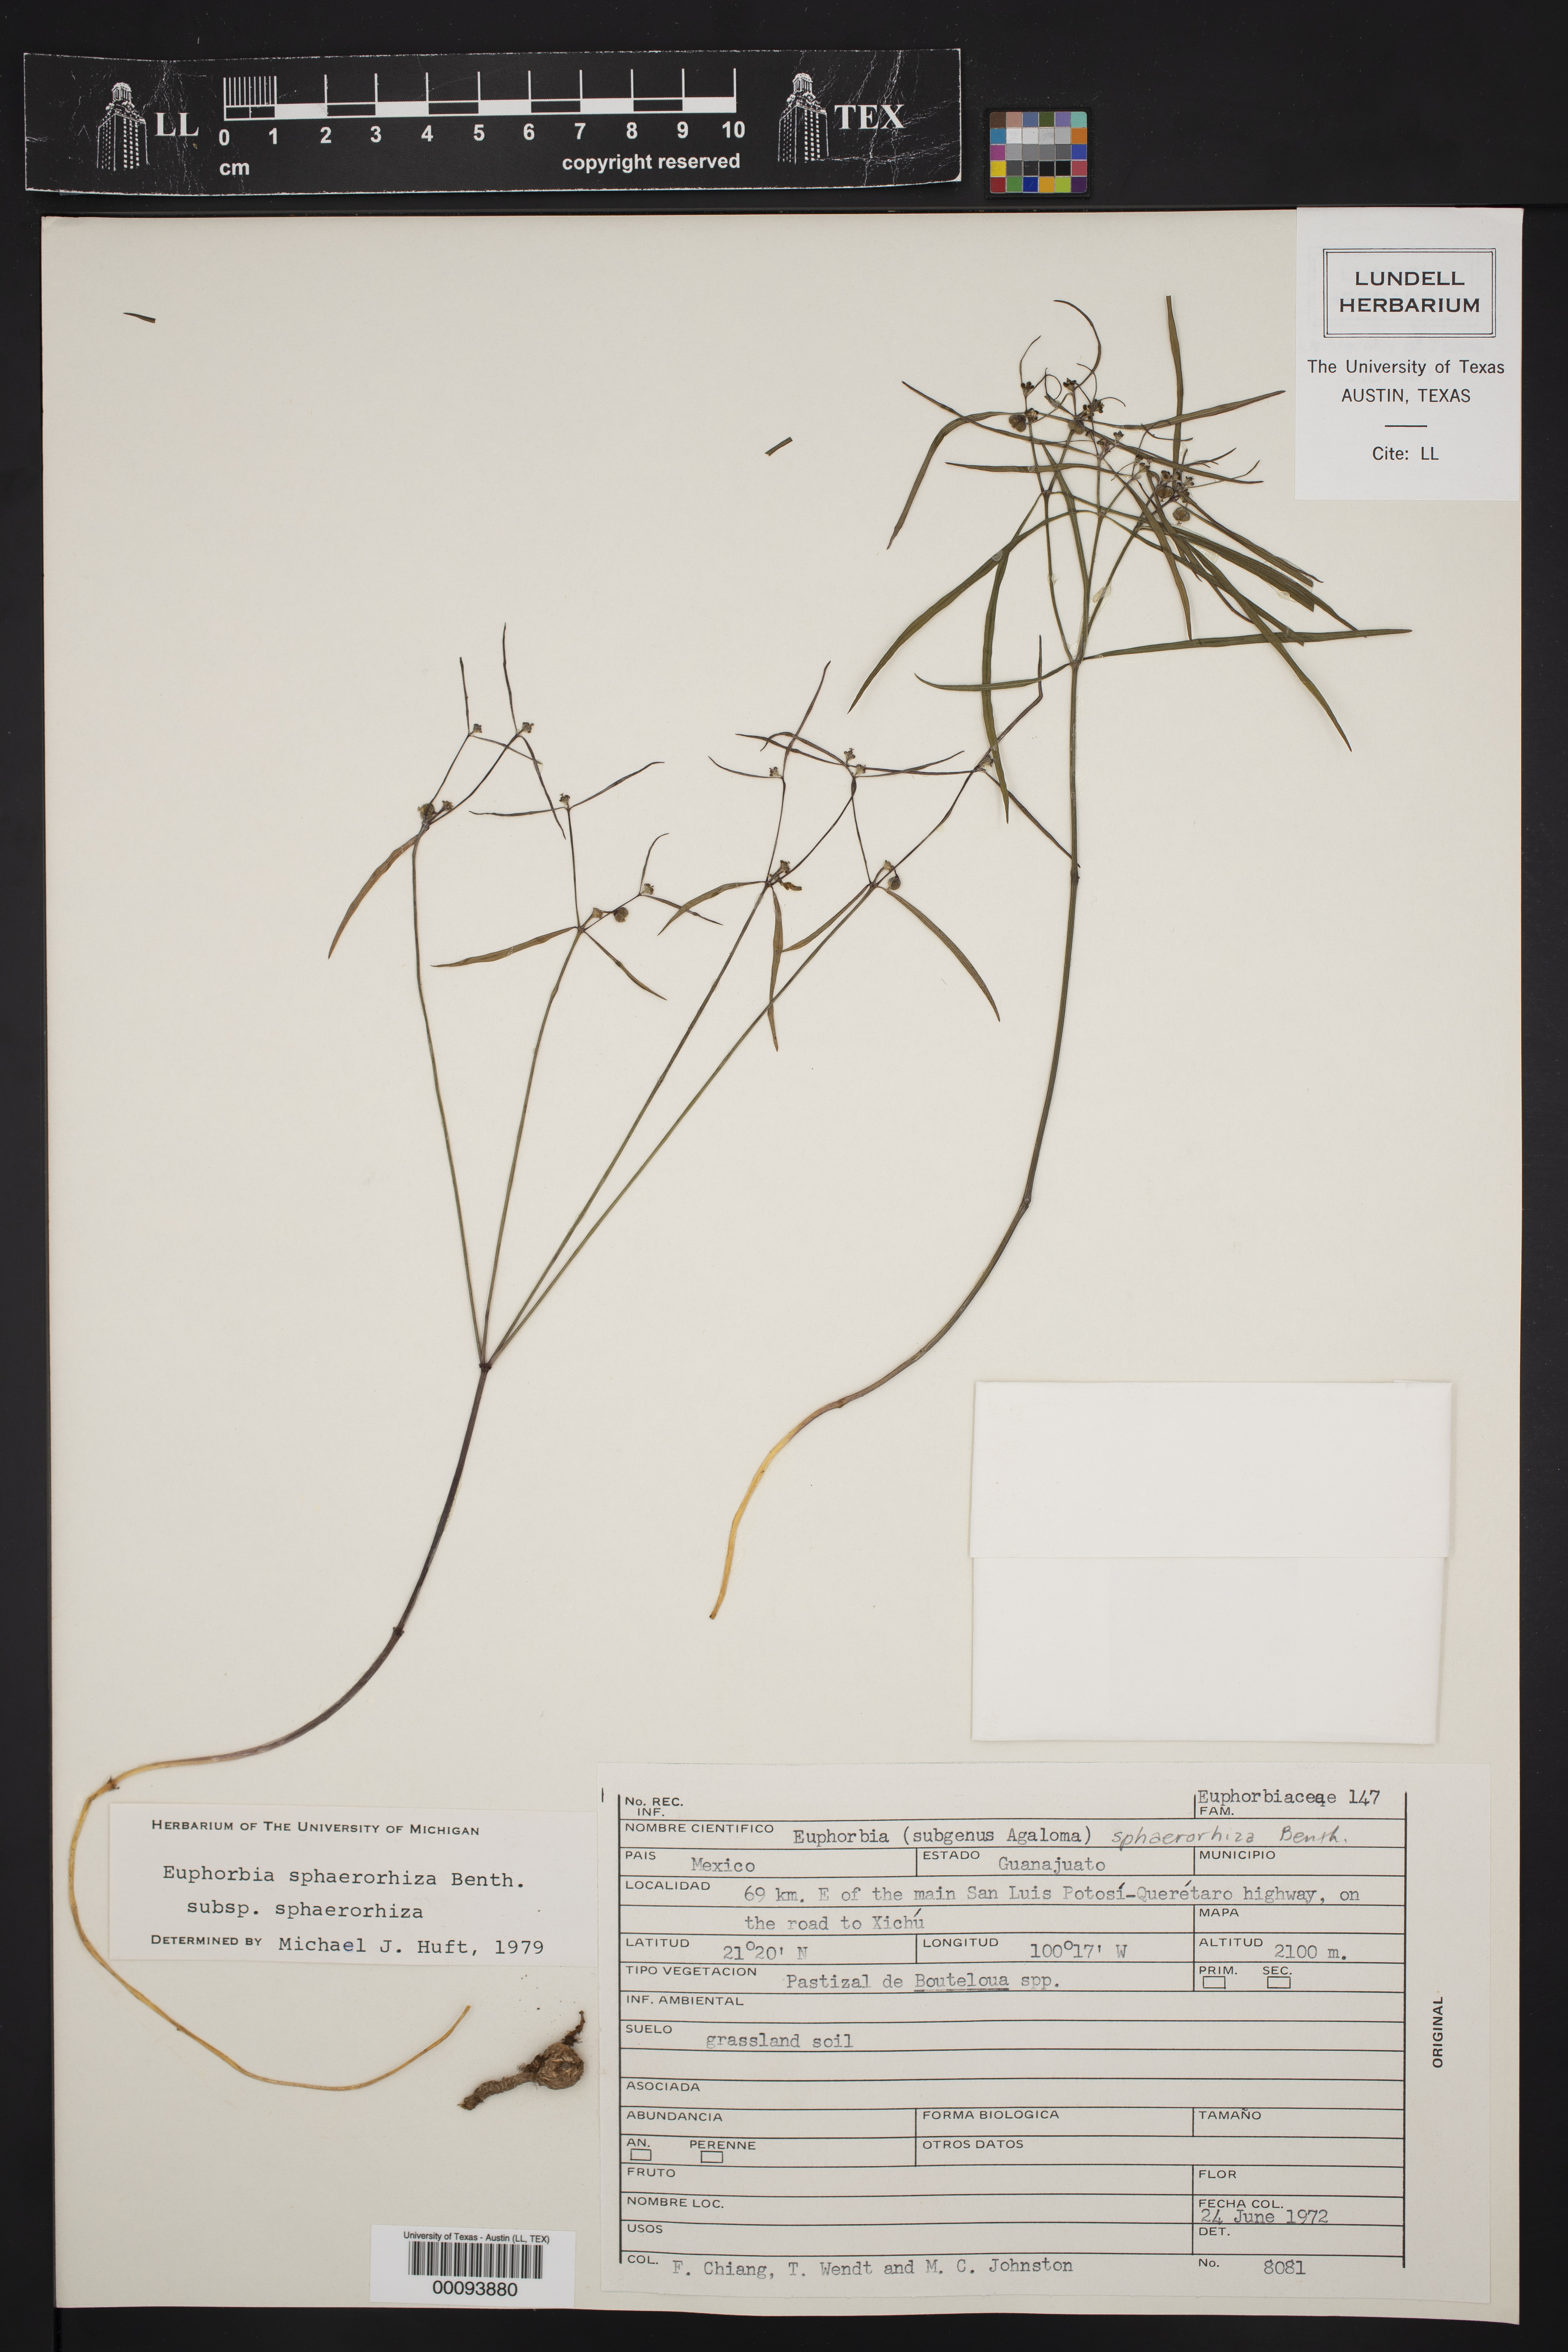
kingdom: Plantae
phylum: Tracheophyta
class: Magnoliopsida
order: Malpighiales
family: Euphorbiaceae
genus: Euphorbia
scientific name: Euphorbia maysillesii
